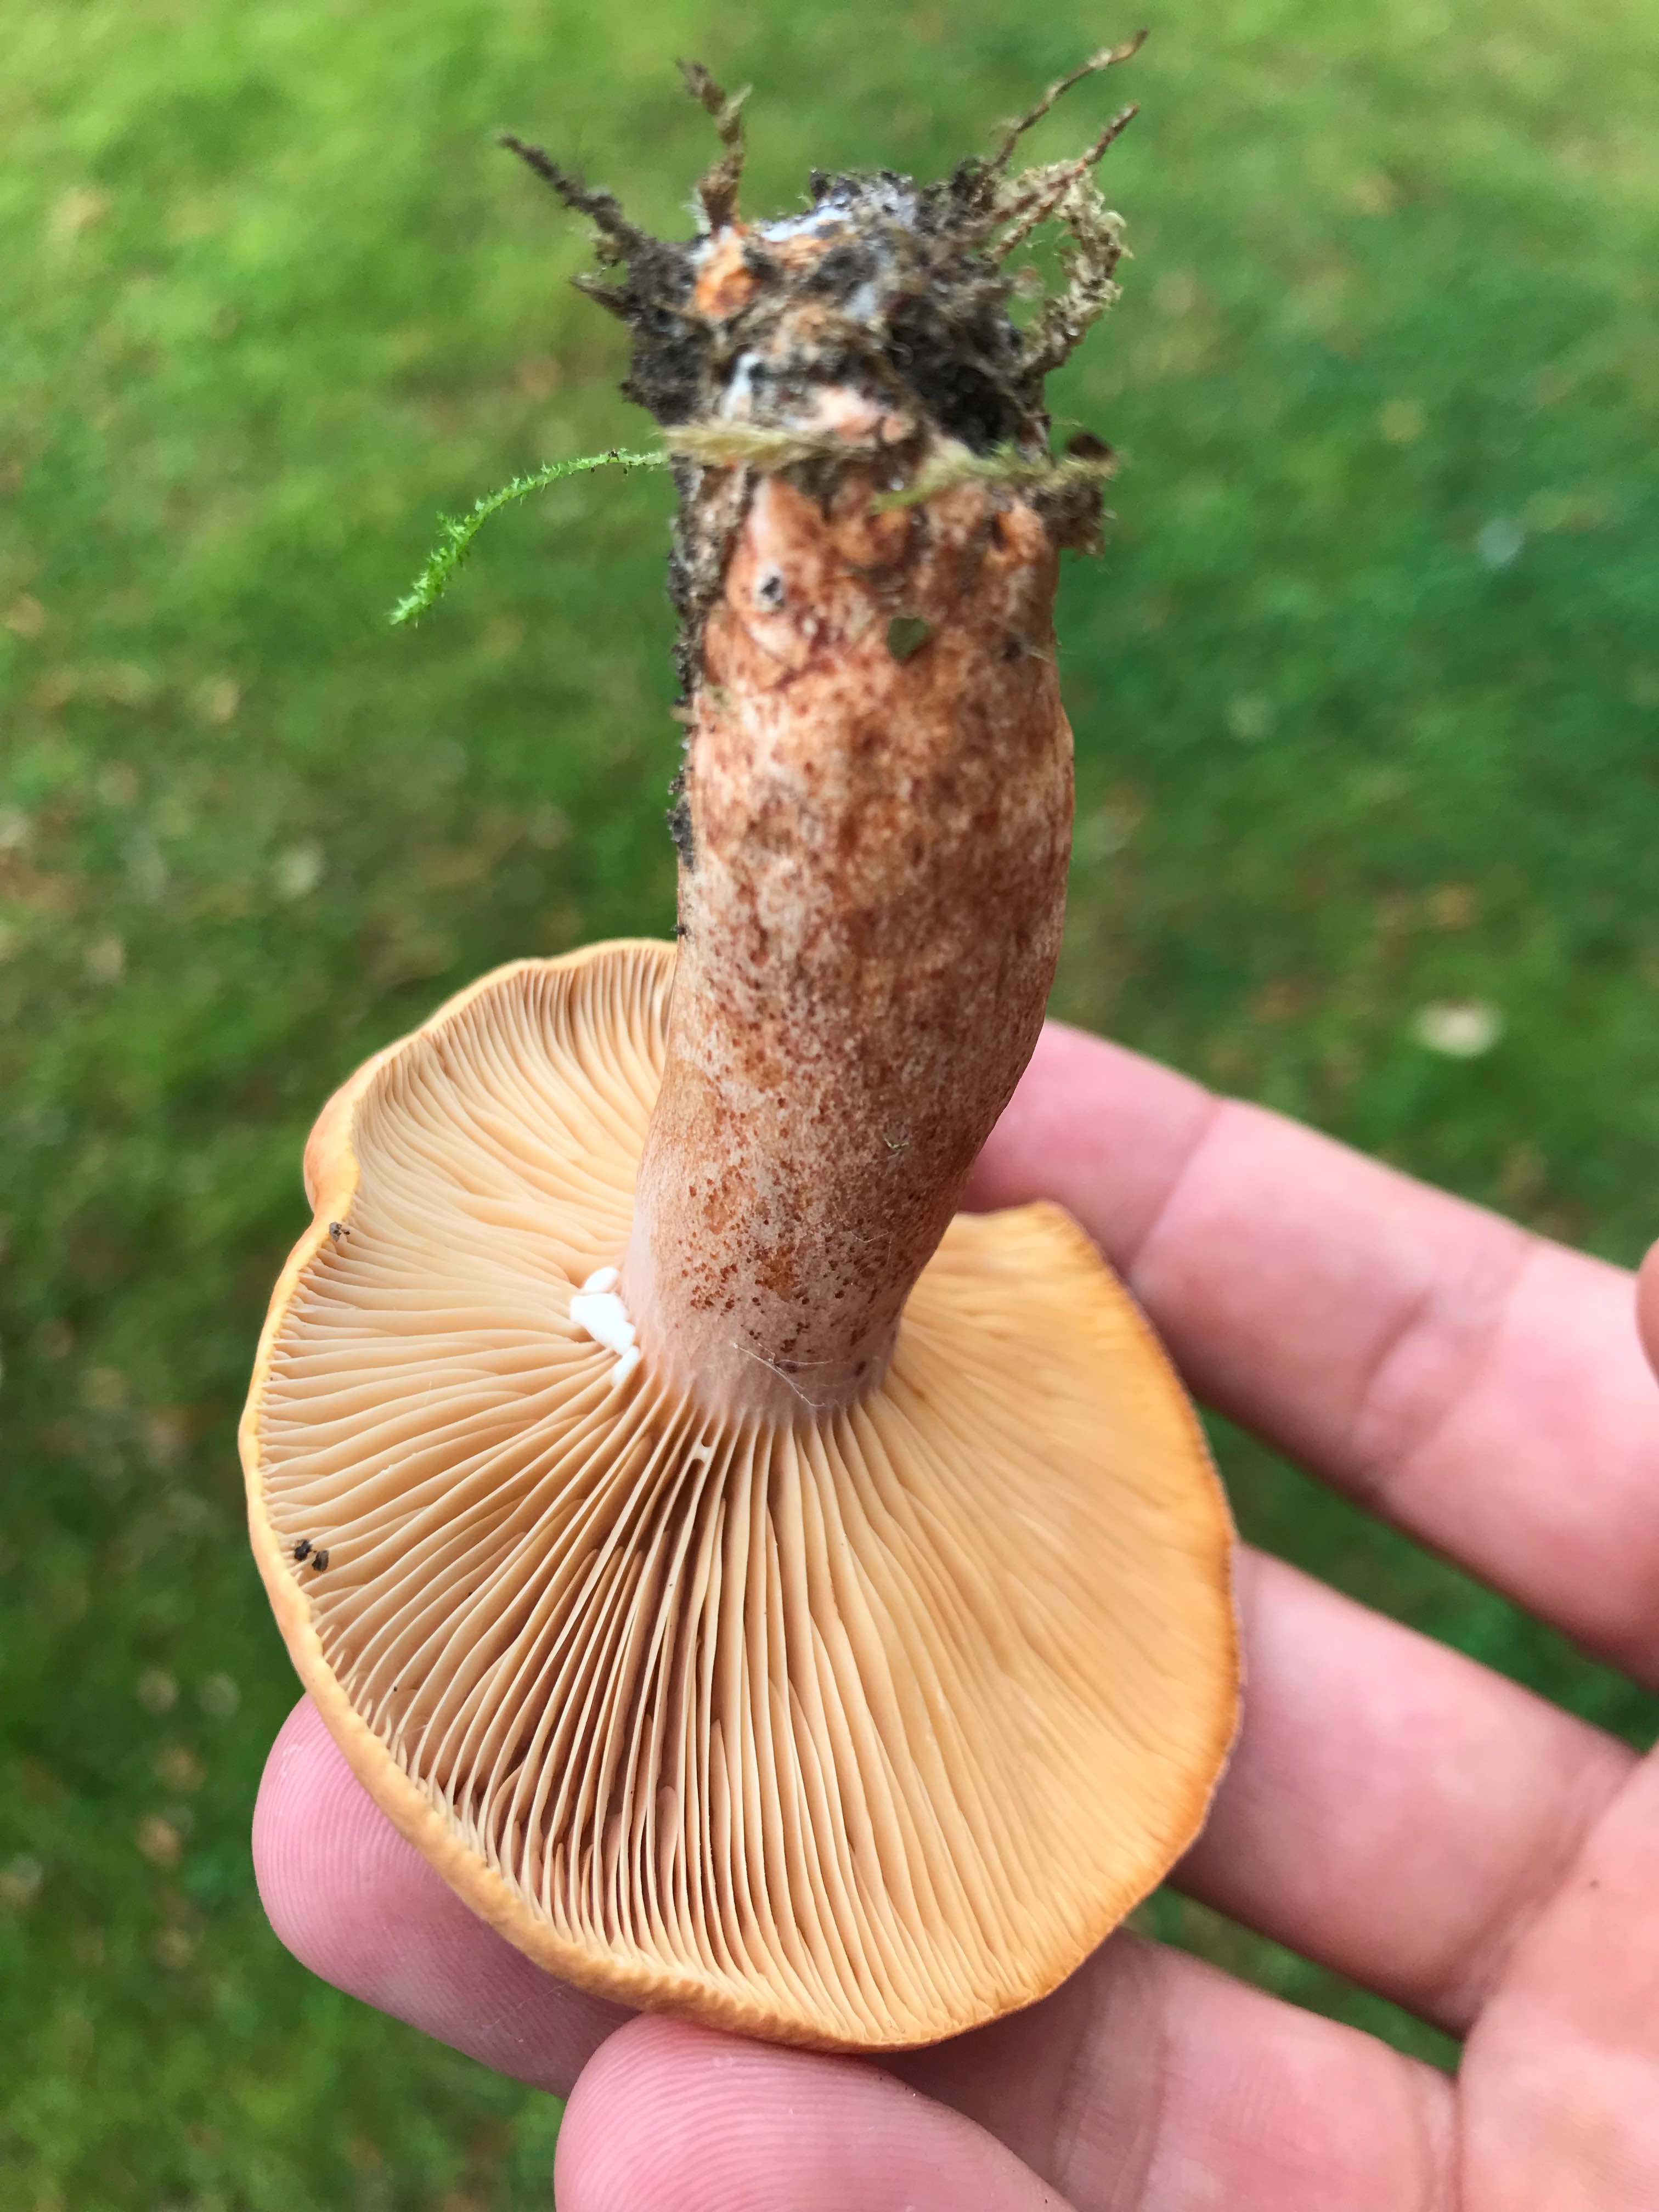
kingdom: Fungi
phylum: Basidiomycota
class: Agaricomycetes
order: Russulales
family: Russulaceae
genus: Lactarius
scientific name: Lactarius
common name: mælkehat
